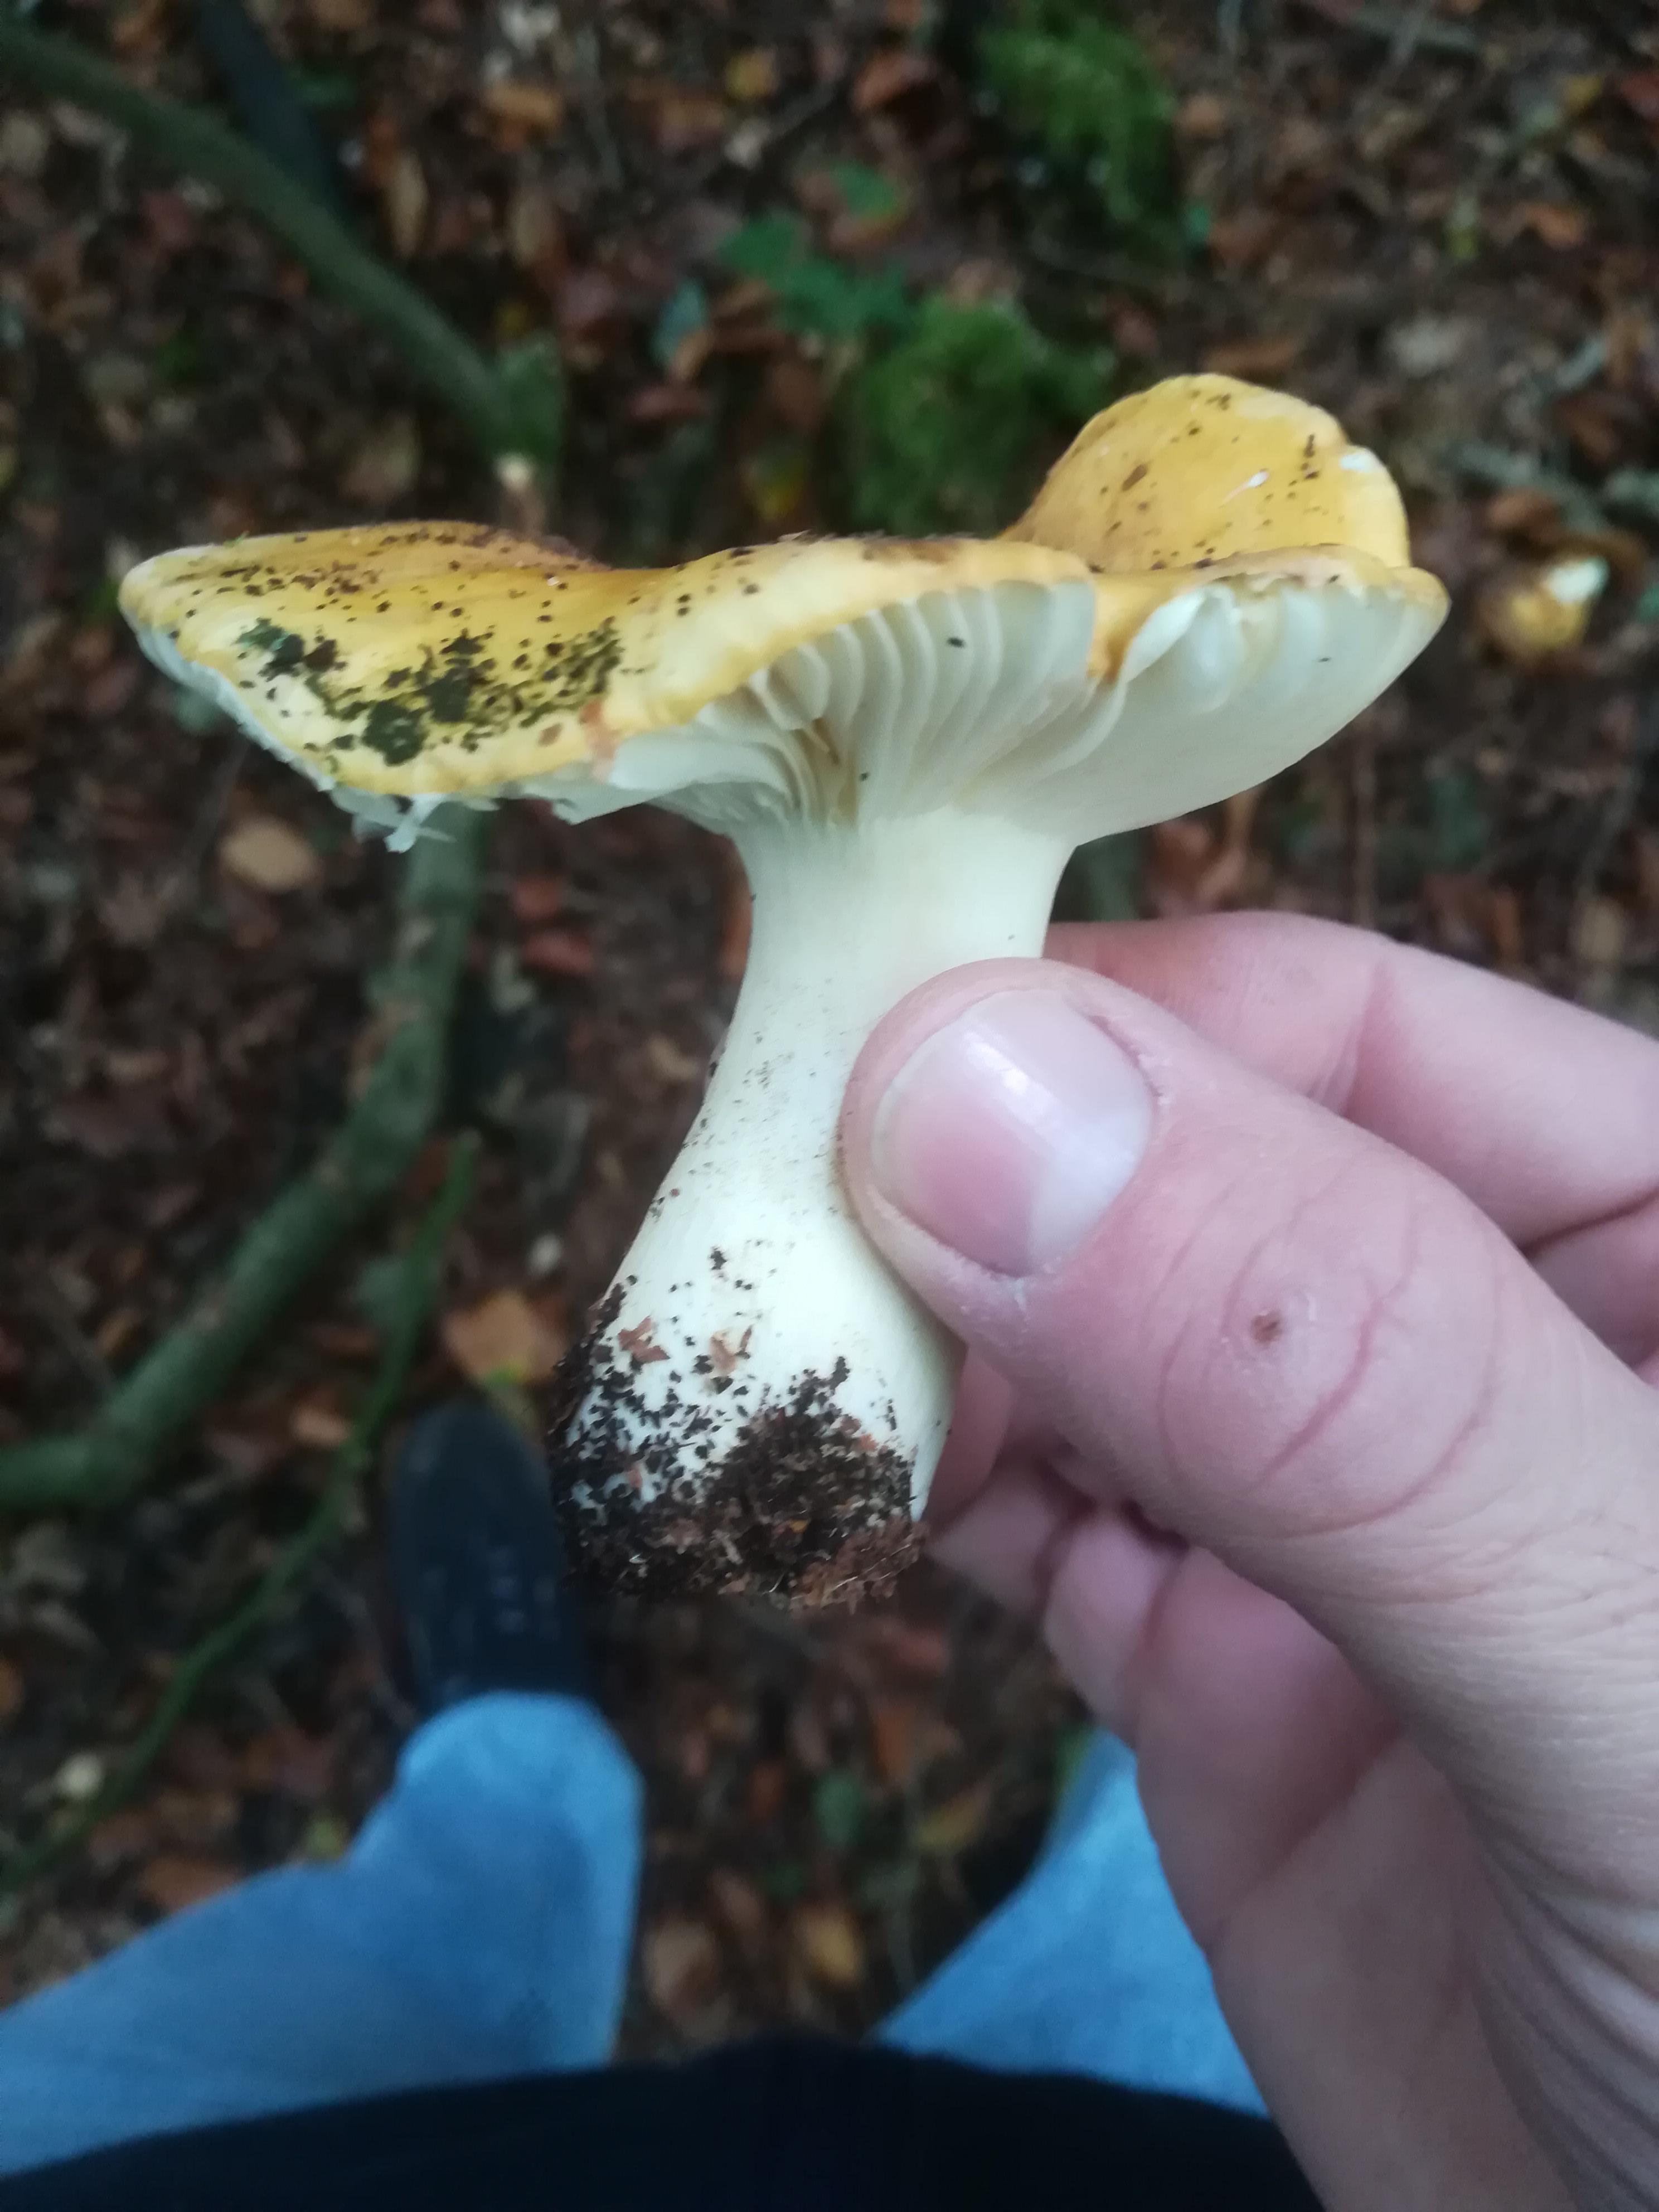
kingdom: Fungi
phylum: Basidiomycota
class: Agaricomycetes
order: Russulales
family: Russulaceae
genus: Russula
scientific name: Russula ochroleuca
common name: okkergul skørhat
